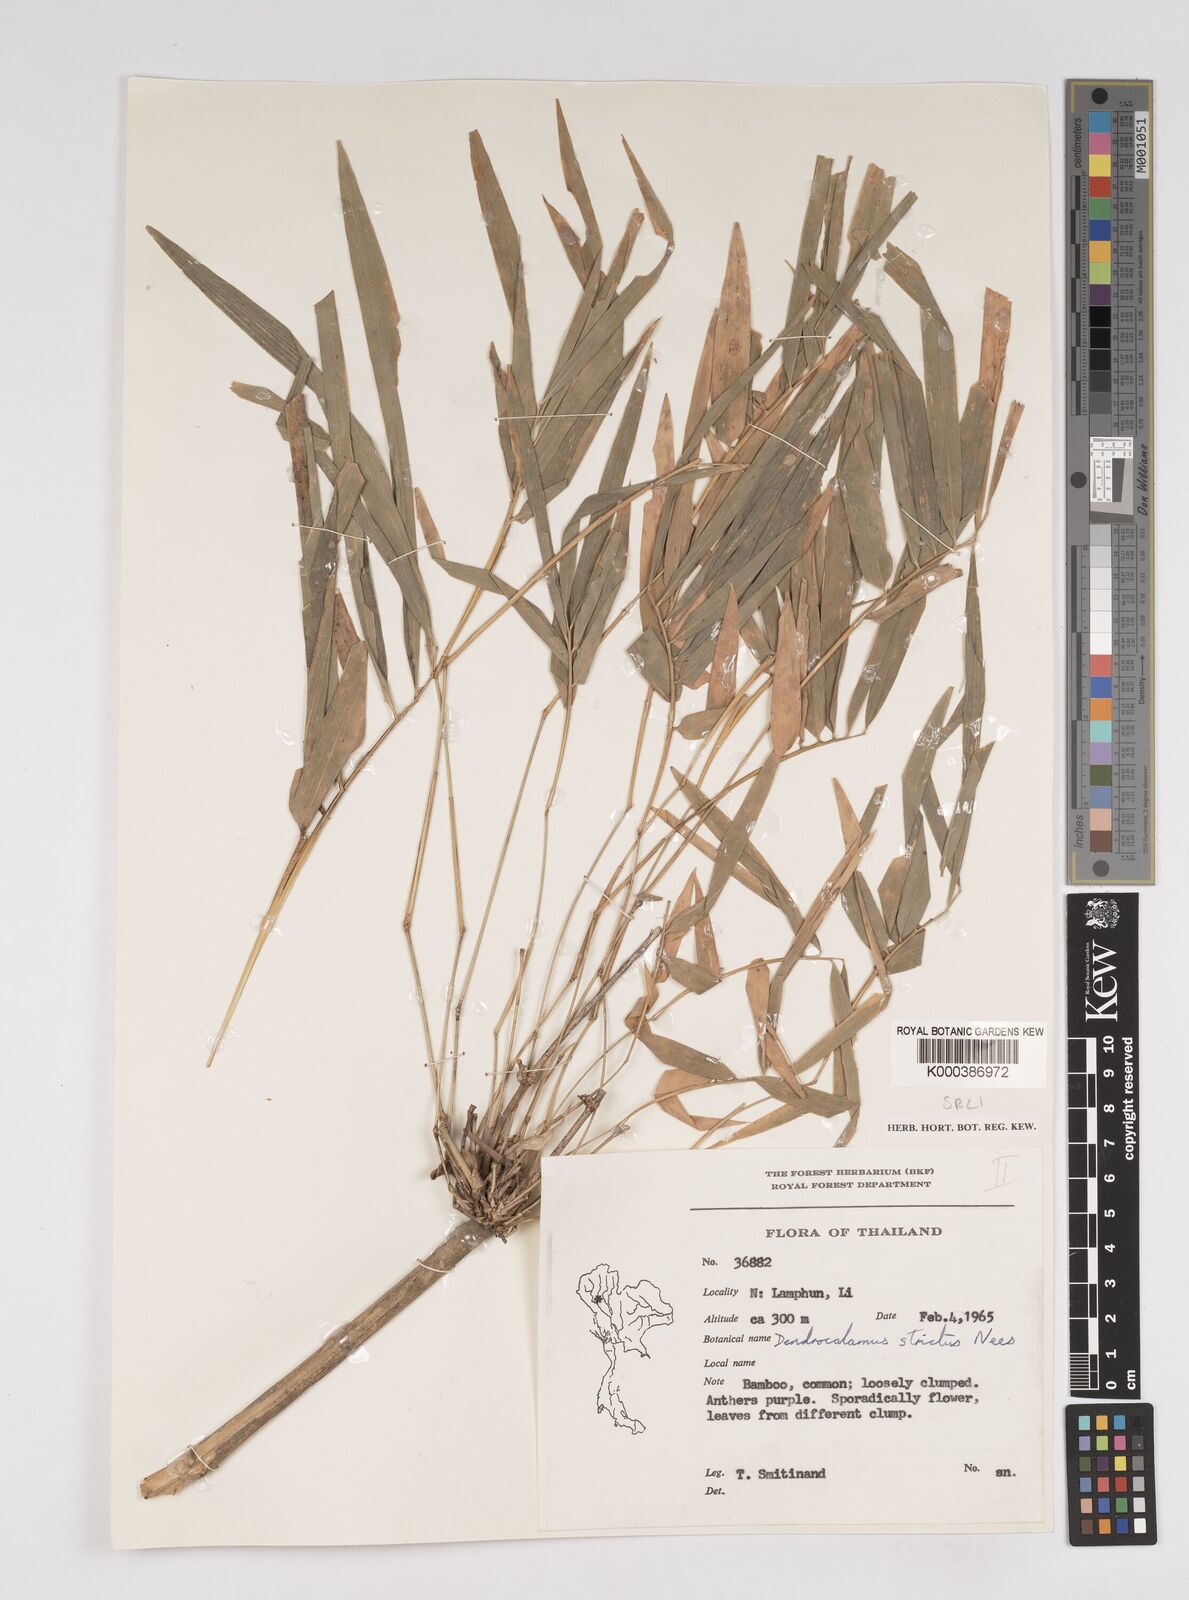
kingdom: Plantae
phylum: Tracheophyta
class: Liliopsida
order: Poales
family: Poaceae
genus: Dendrocalamus
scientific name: Dendrocalamus membranaceus
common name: White bamboo
